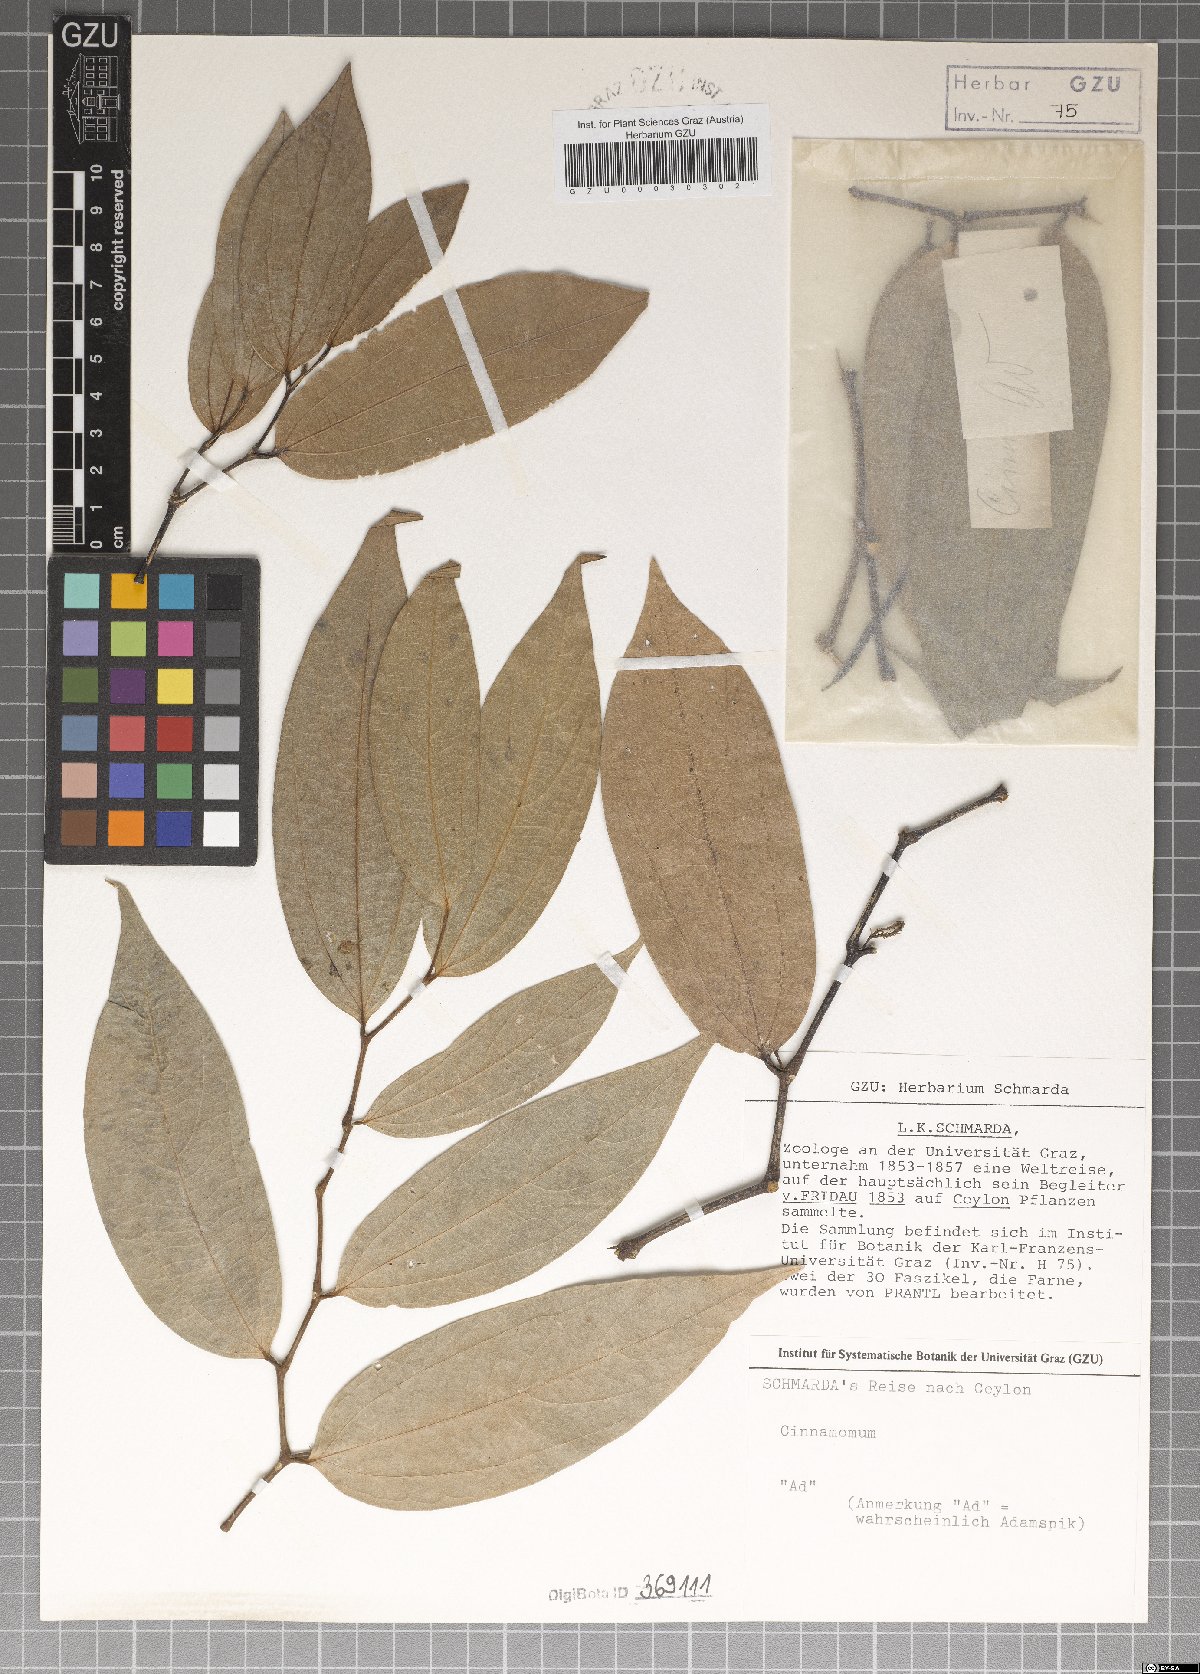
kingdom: Plantae
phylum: Tracheophyta
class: Magnoliopsida
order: Laurales
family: Lauraceae
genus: Cinnamomum
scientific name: Cinnamomum
